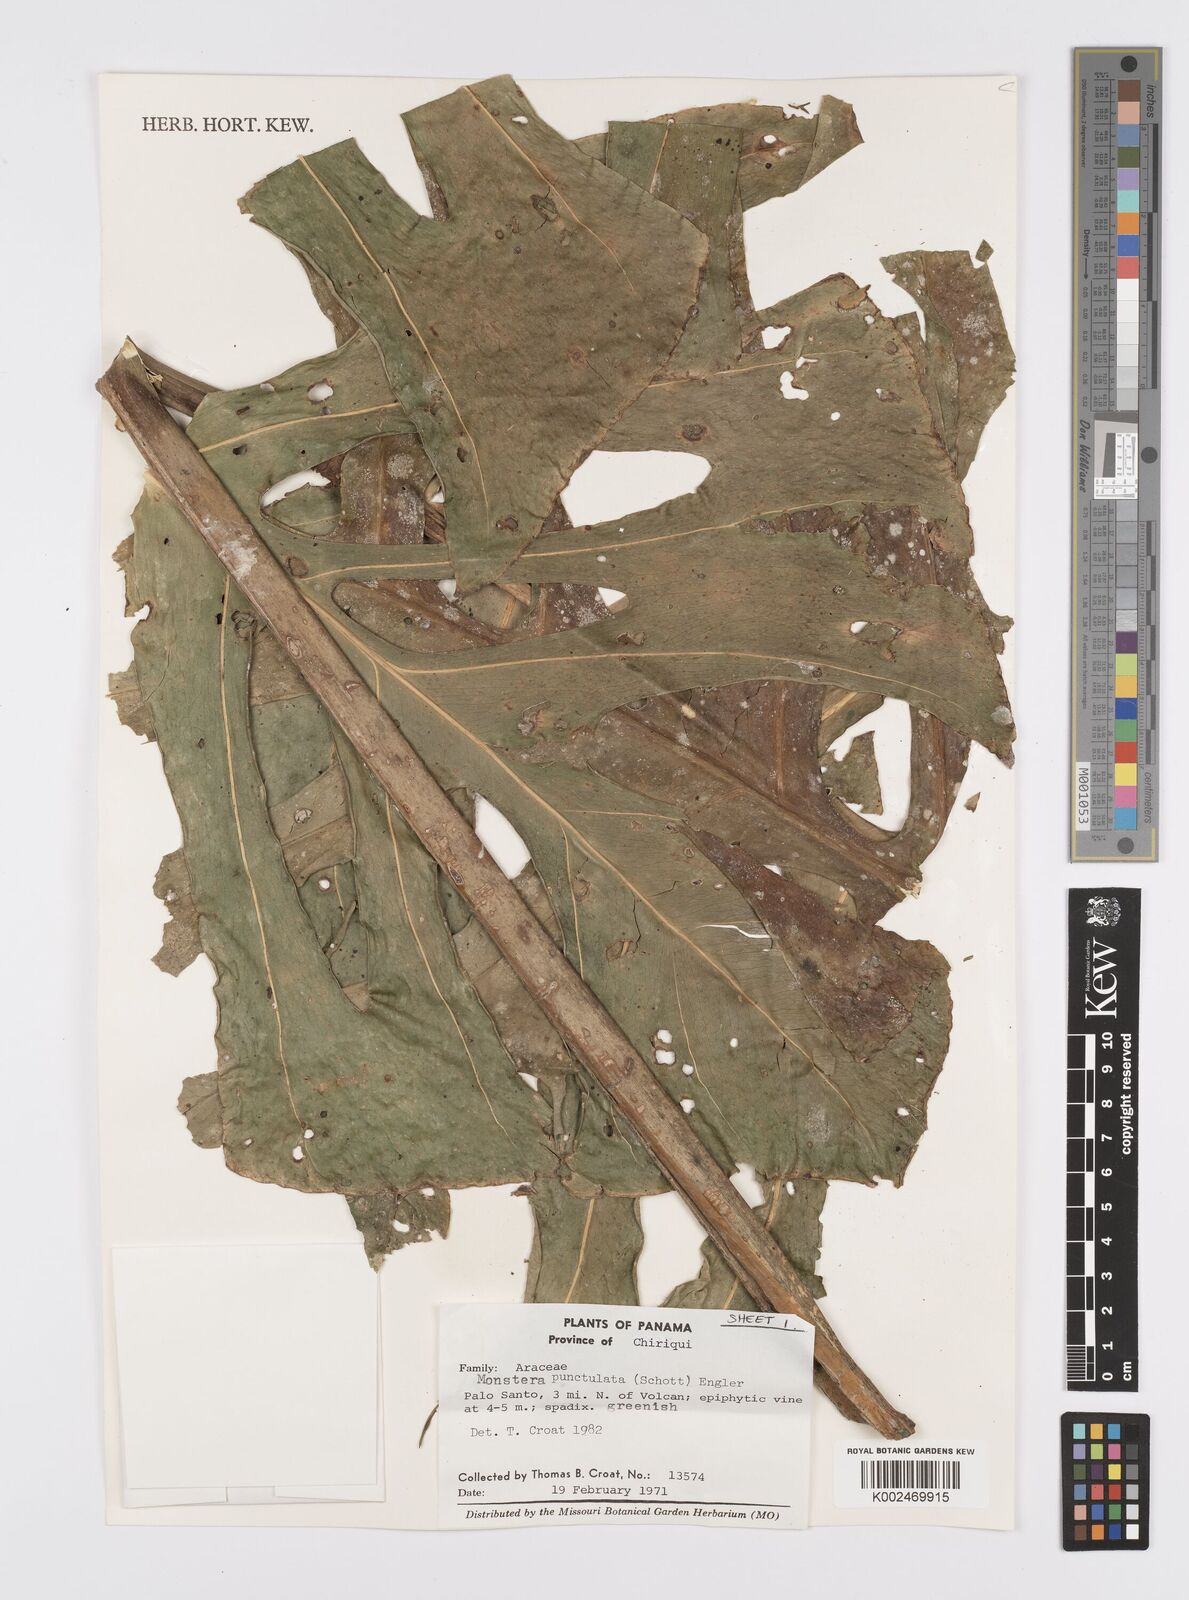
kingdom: Plantae
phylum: Tracheophyta
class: Liliopsida
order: Alismatales
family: Araceae
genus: Monstera
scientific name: Monstera punctulata
